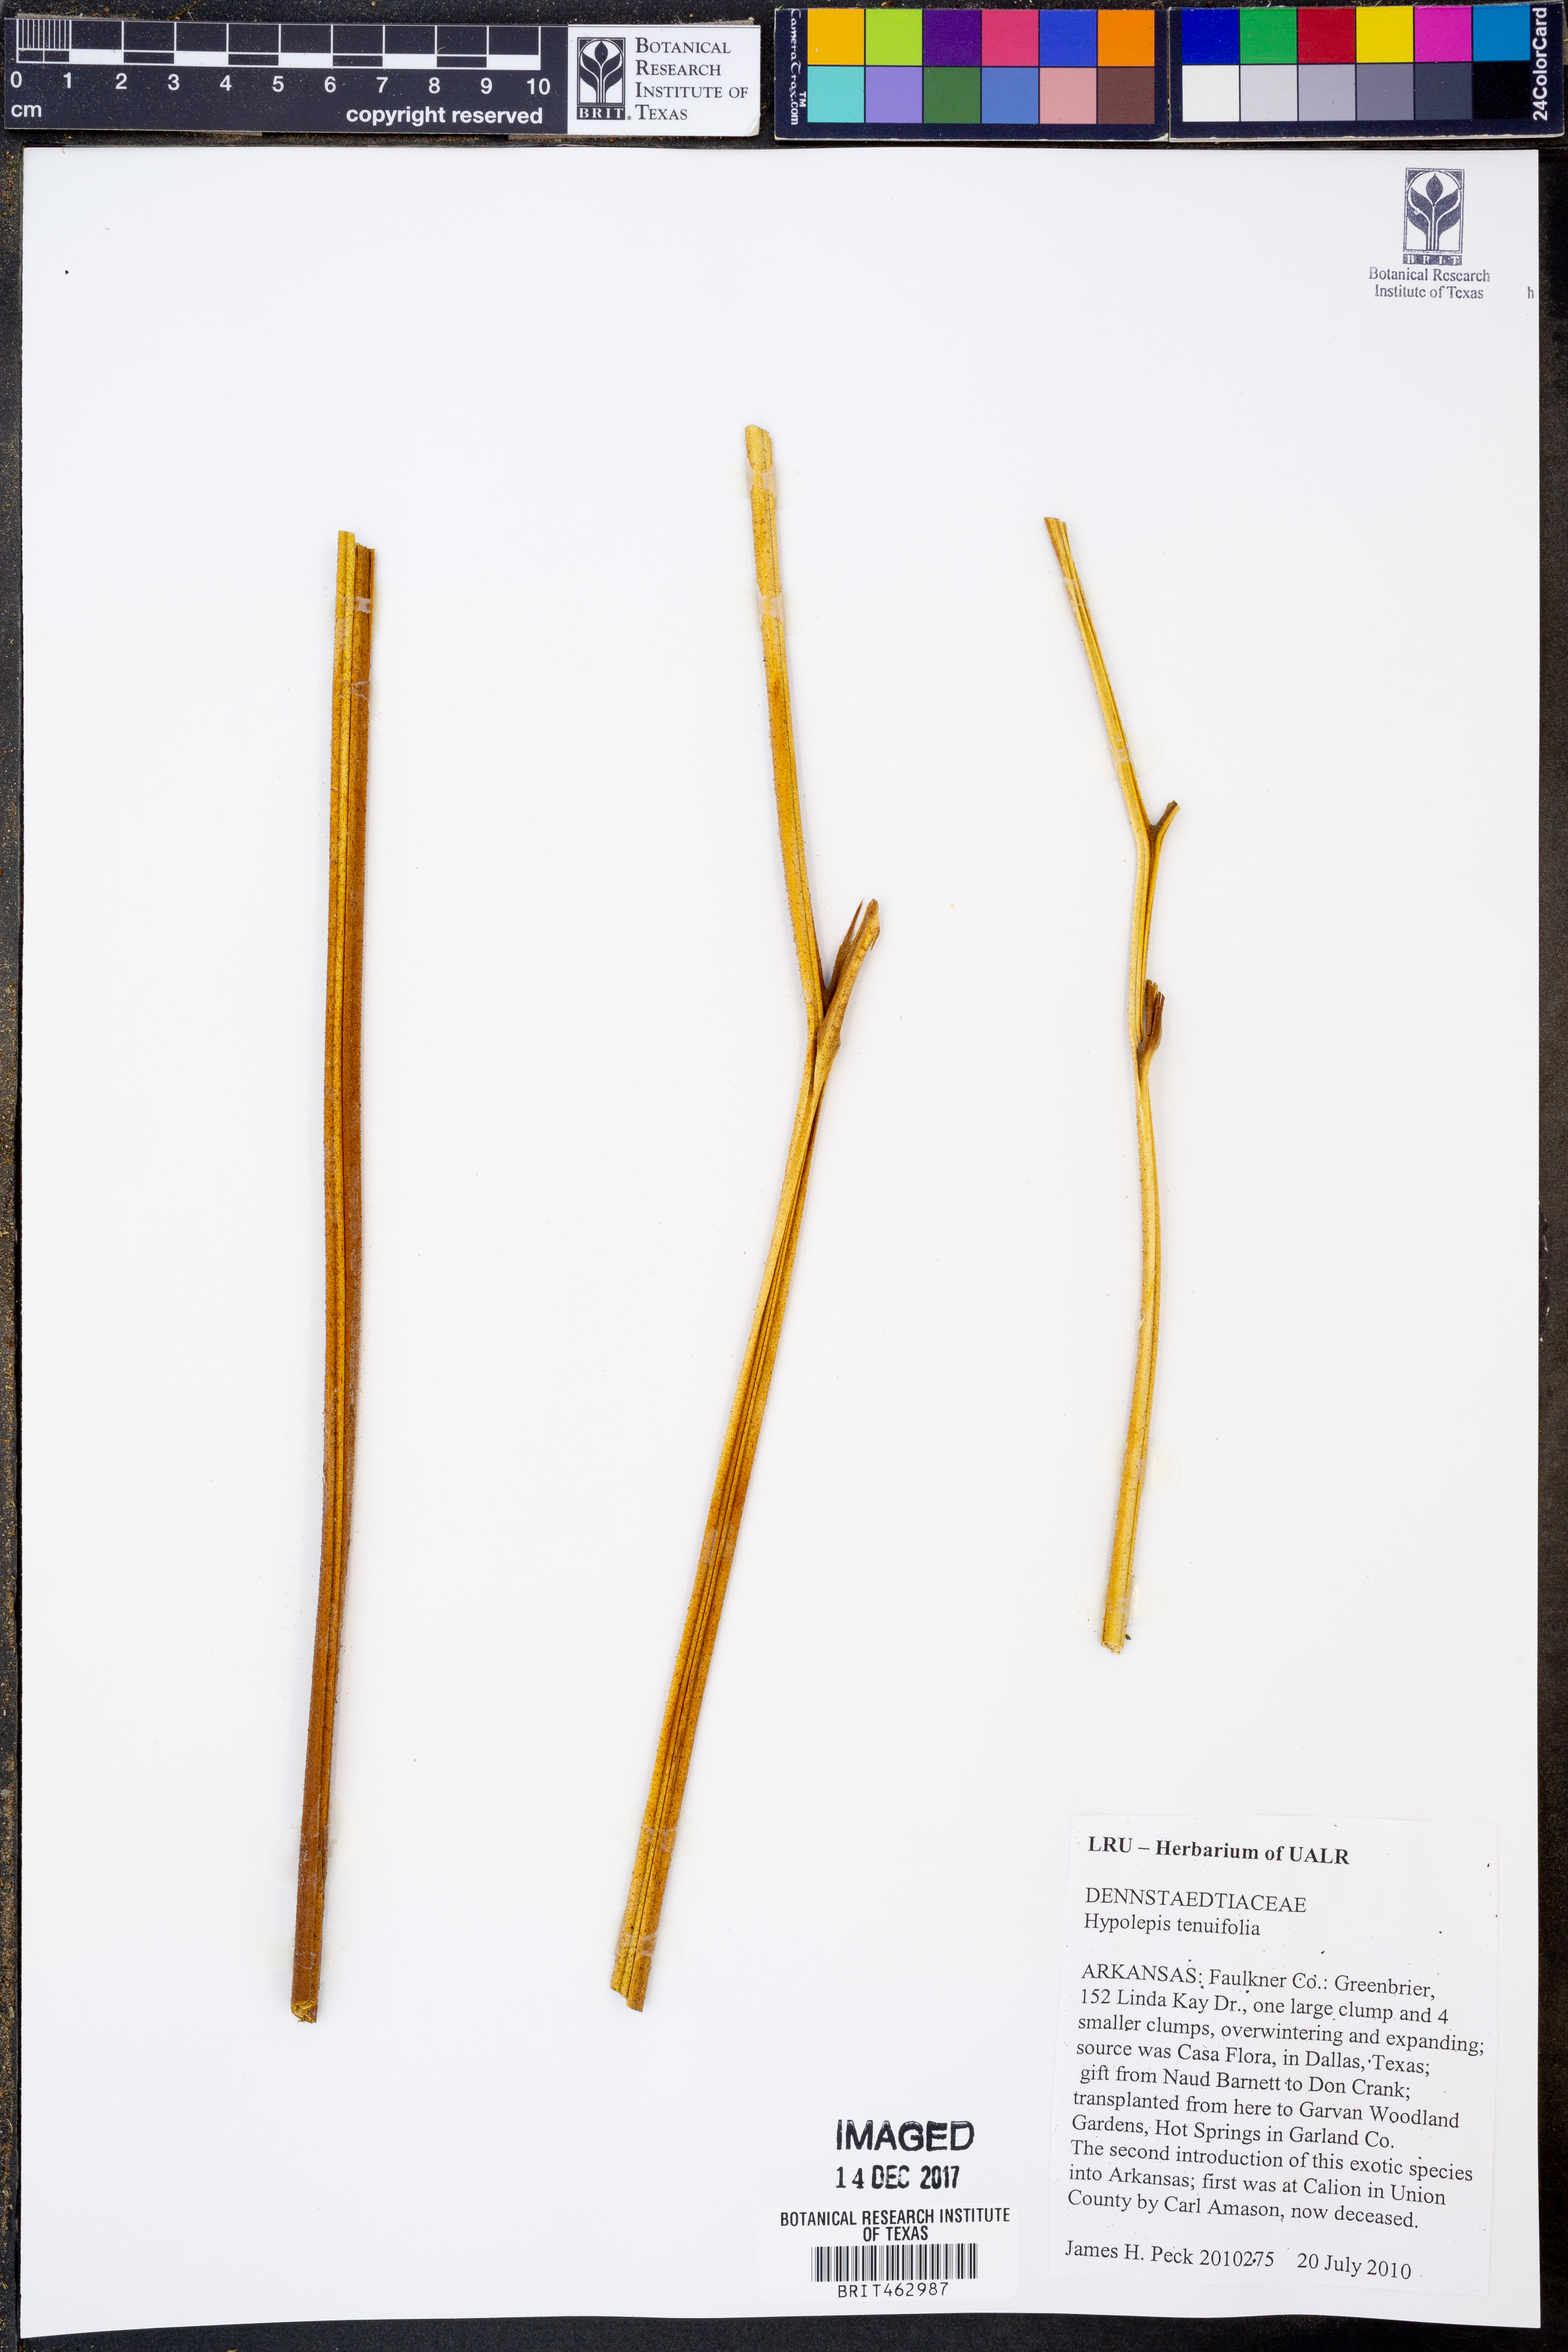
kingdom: Plantae
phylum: Tracheophyta
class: Polypodiopsida
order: Polypodiales
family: Dennstaedtiaceae
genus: Hypolepis
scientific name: Hypolepis tenuifolia
